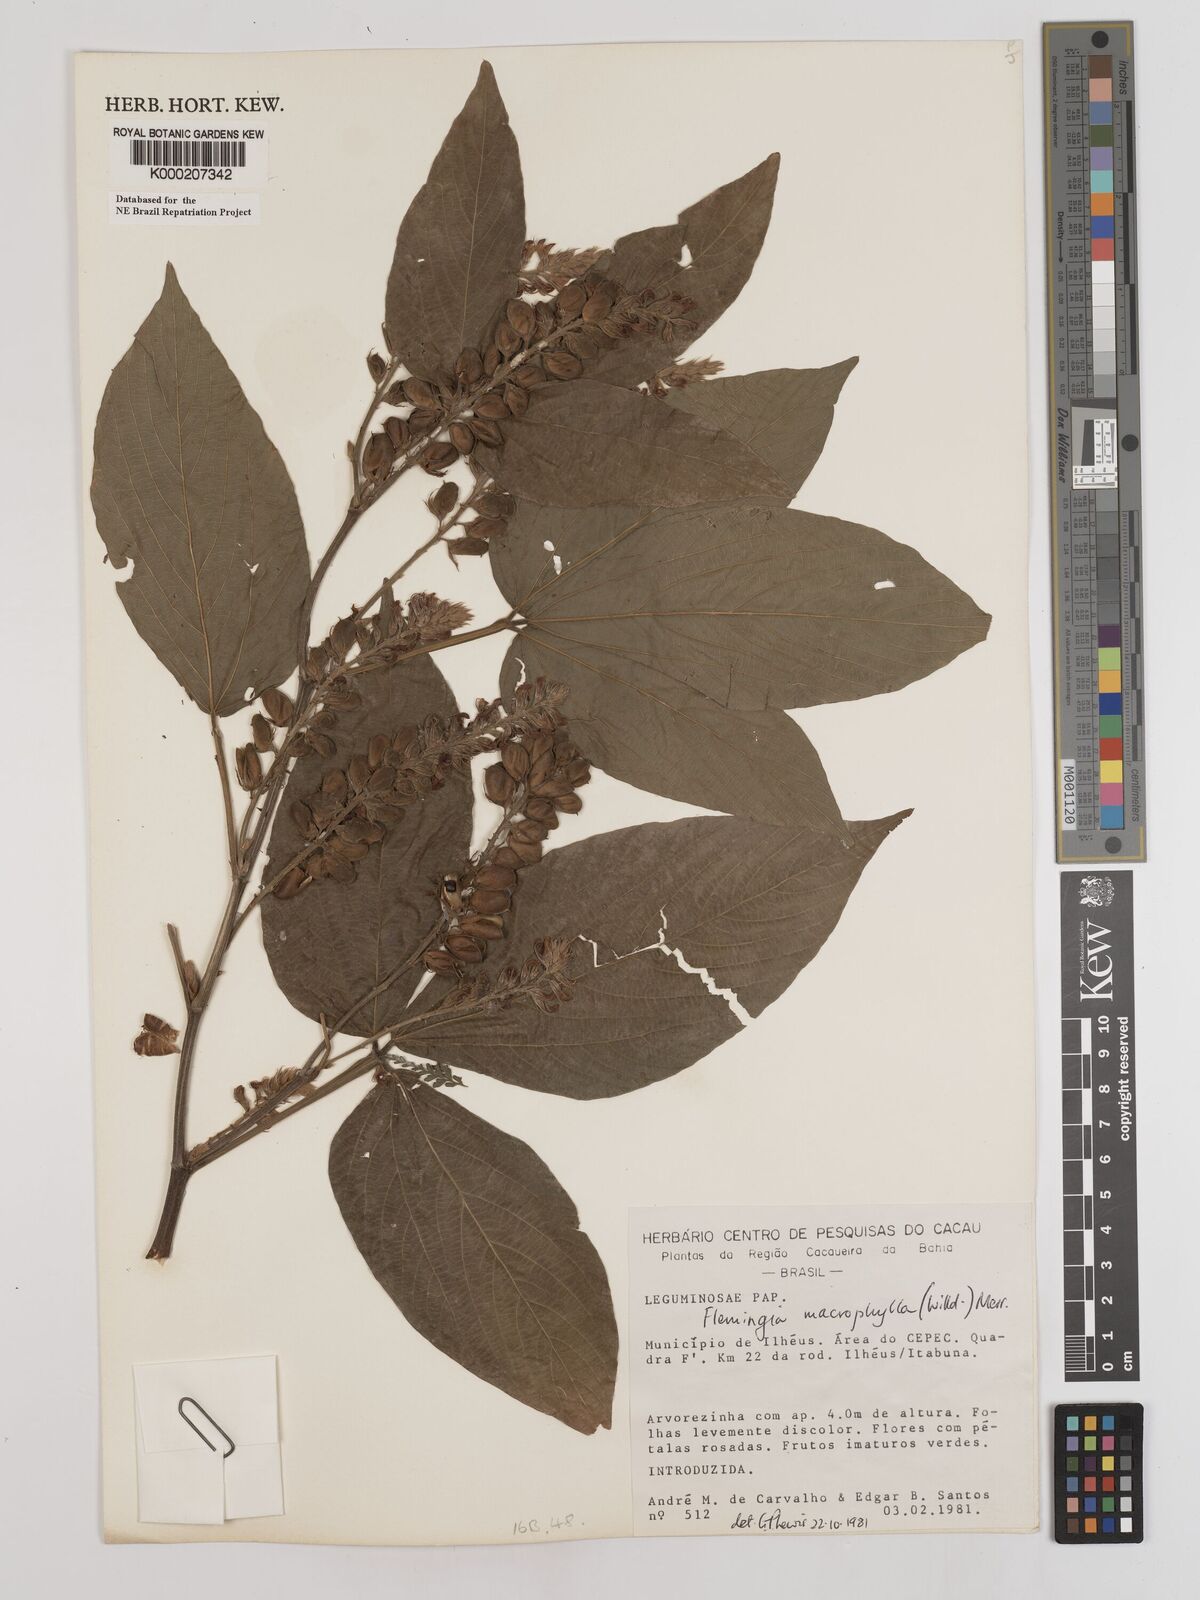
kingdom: Plantae
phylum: Tracheophyta
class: Magnoliopsida
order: Fabales
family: Fabaceae
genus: Flemingia
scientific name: Flemingia macrophylla
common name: Flemingia
